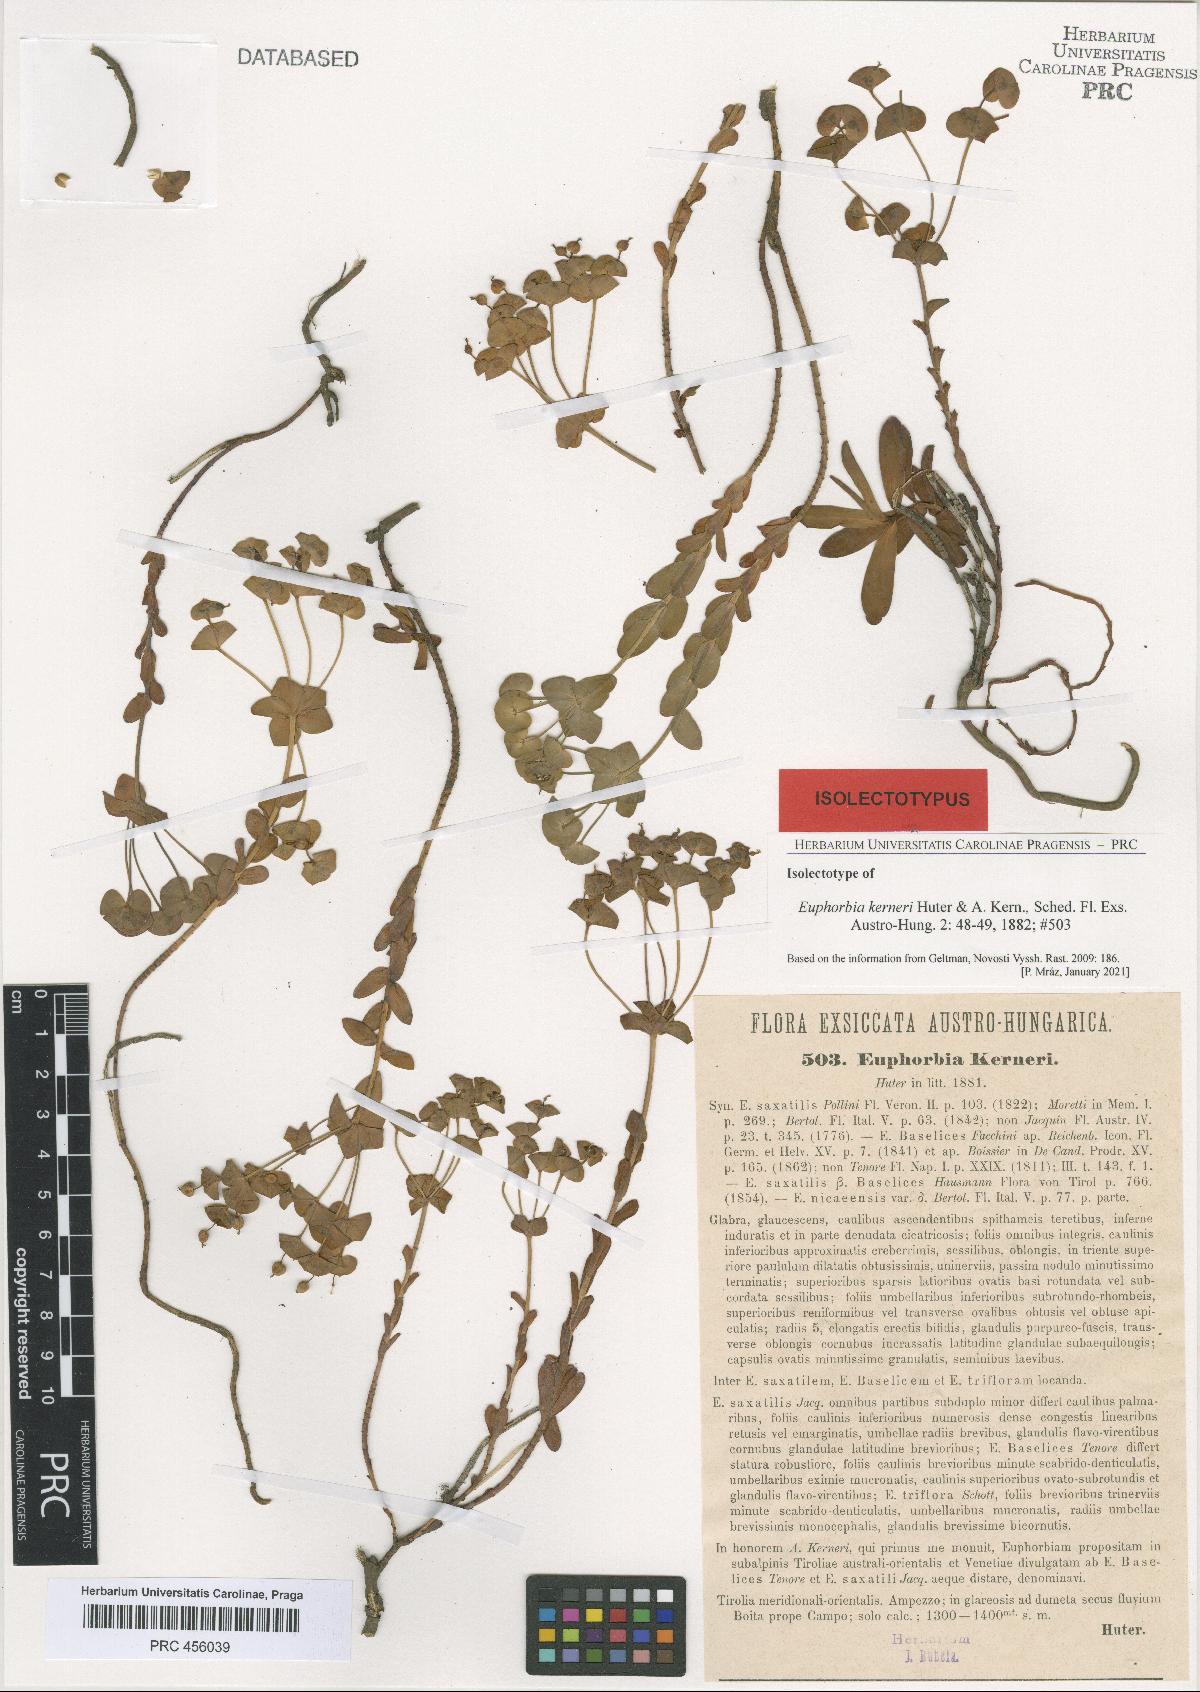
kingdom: Plantae
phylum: Tracheophyta
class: Magnoliopsida
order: Malpighiales
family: Euphorbiaceae
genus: Euphorbia
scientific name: Euphorbia kerneri
